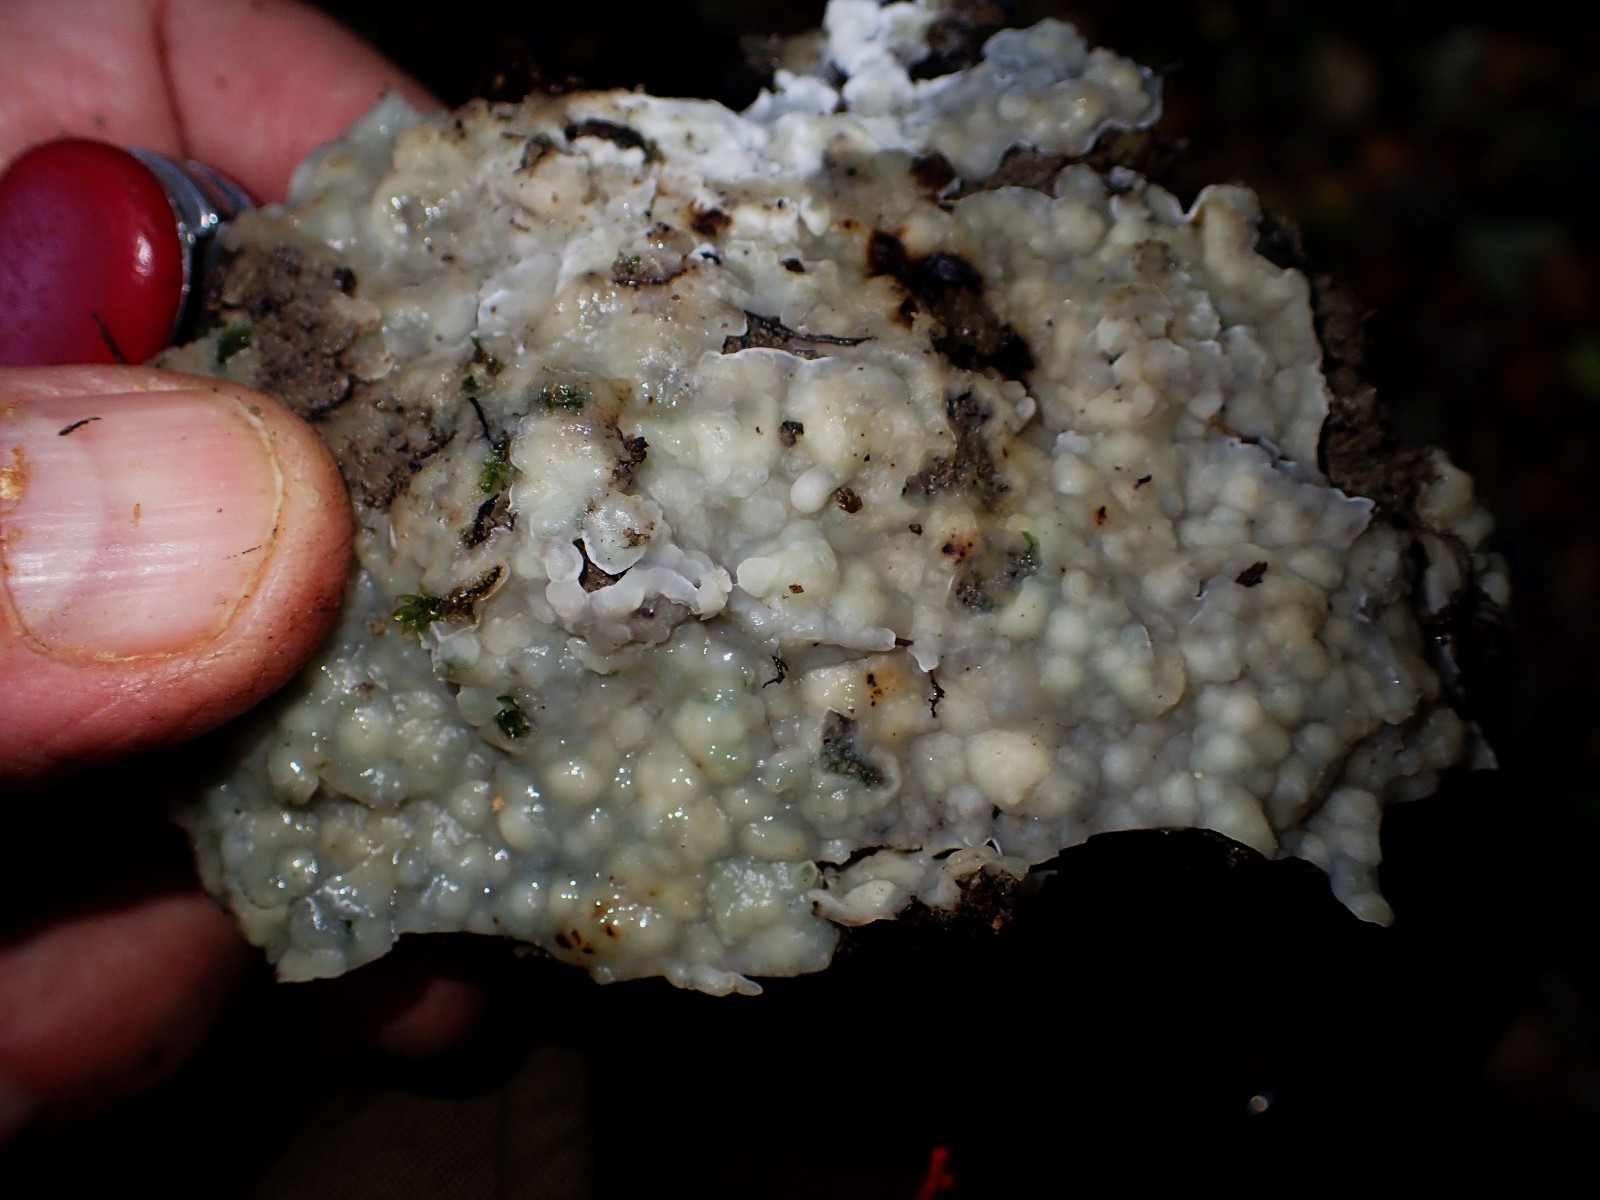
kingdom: Fungi
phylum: Basidiomycota
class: Agaricomycetes
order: Polyporales
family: Phanerochaetaceae
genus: Phlebiopsis
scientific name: Phlebiopsis gigantea
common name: kæmpebarksvamp
